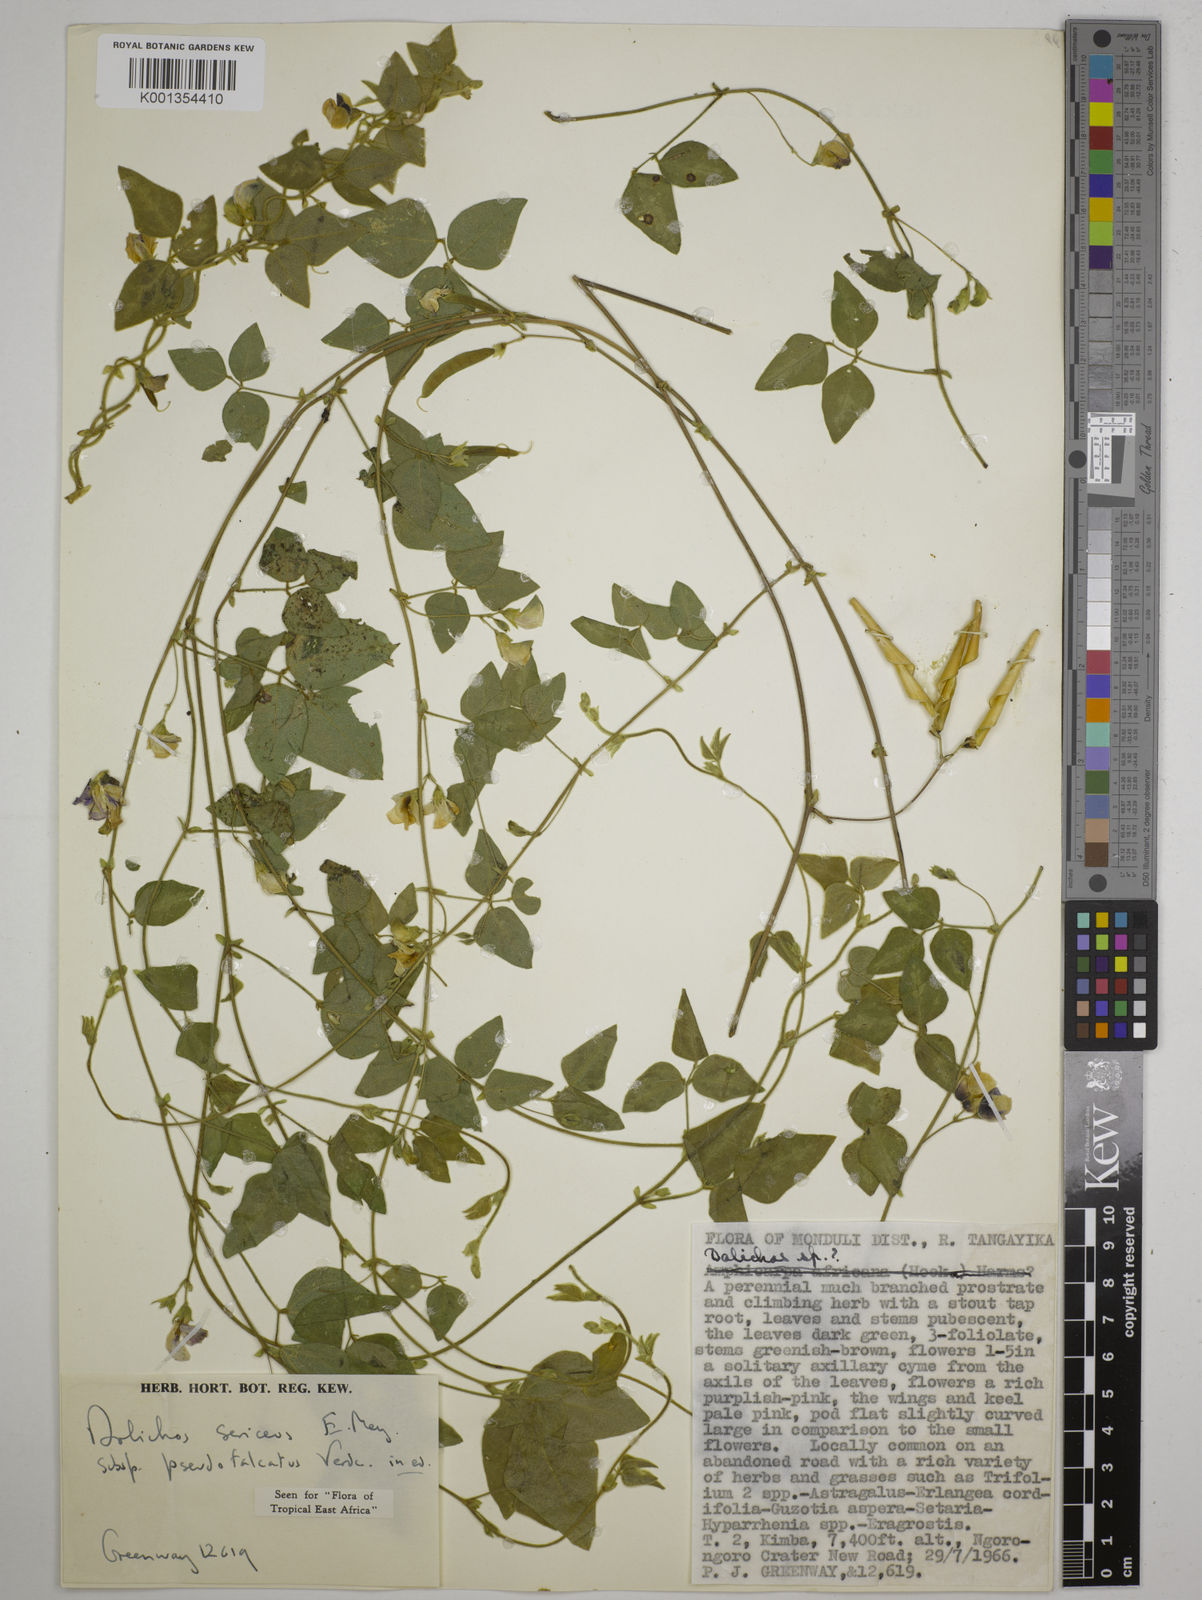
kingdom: Plantae
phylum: Tracheophyta
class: Magnoliopsida
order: Fabales
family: Fabaceae
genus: Dolichos
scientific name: Dolichos
